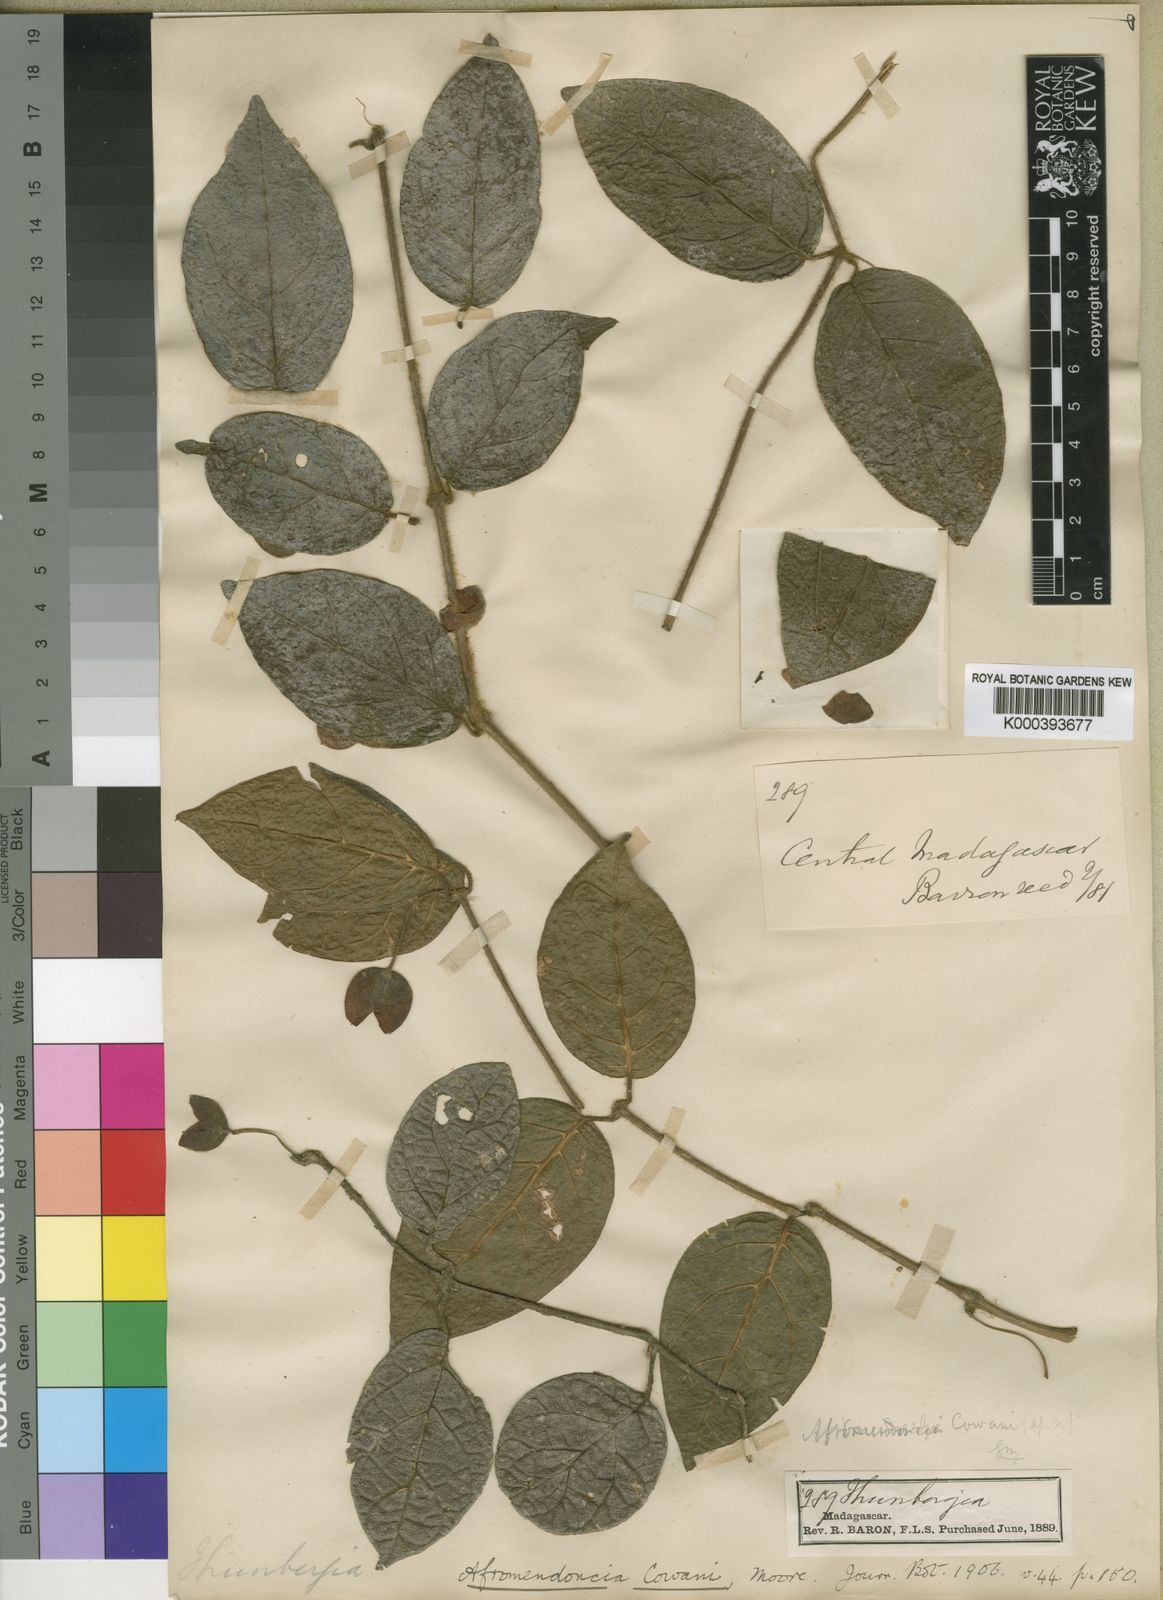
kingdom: Plantae
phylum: Tracheophyta
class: Magnoliopsida
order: Lamiales
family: Acanthaceae
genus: Mendoncia
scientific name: Mendoncia cowanii
